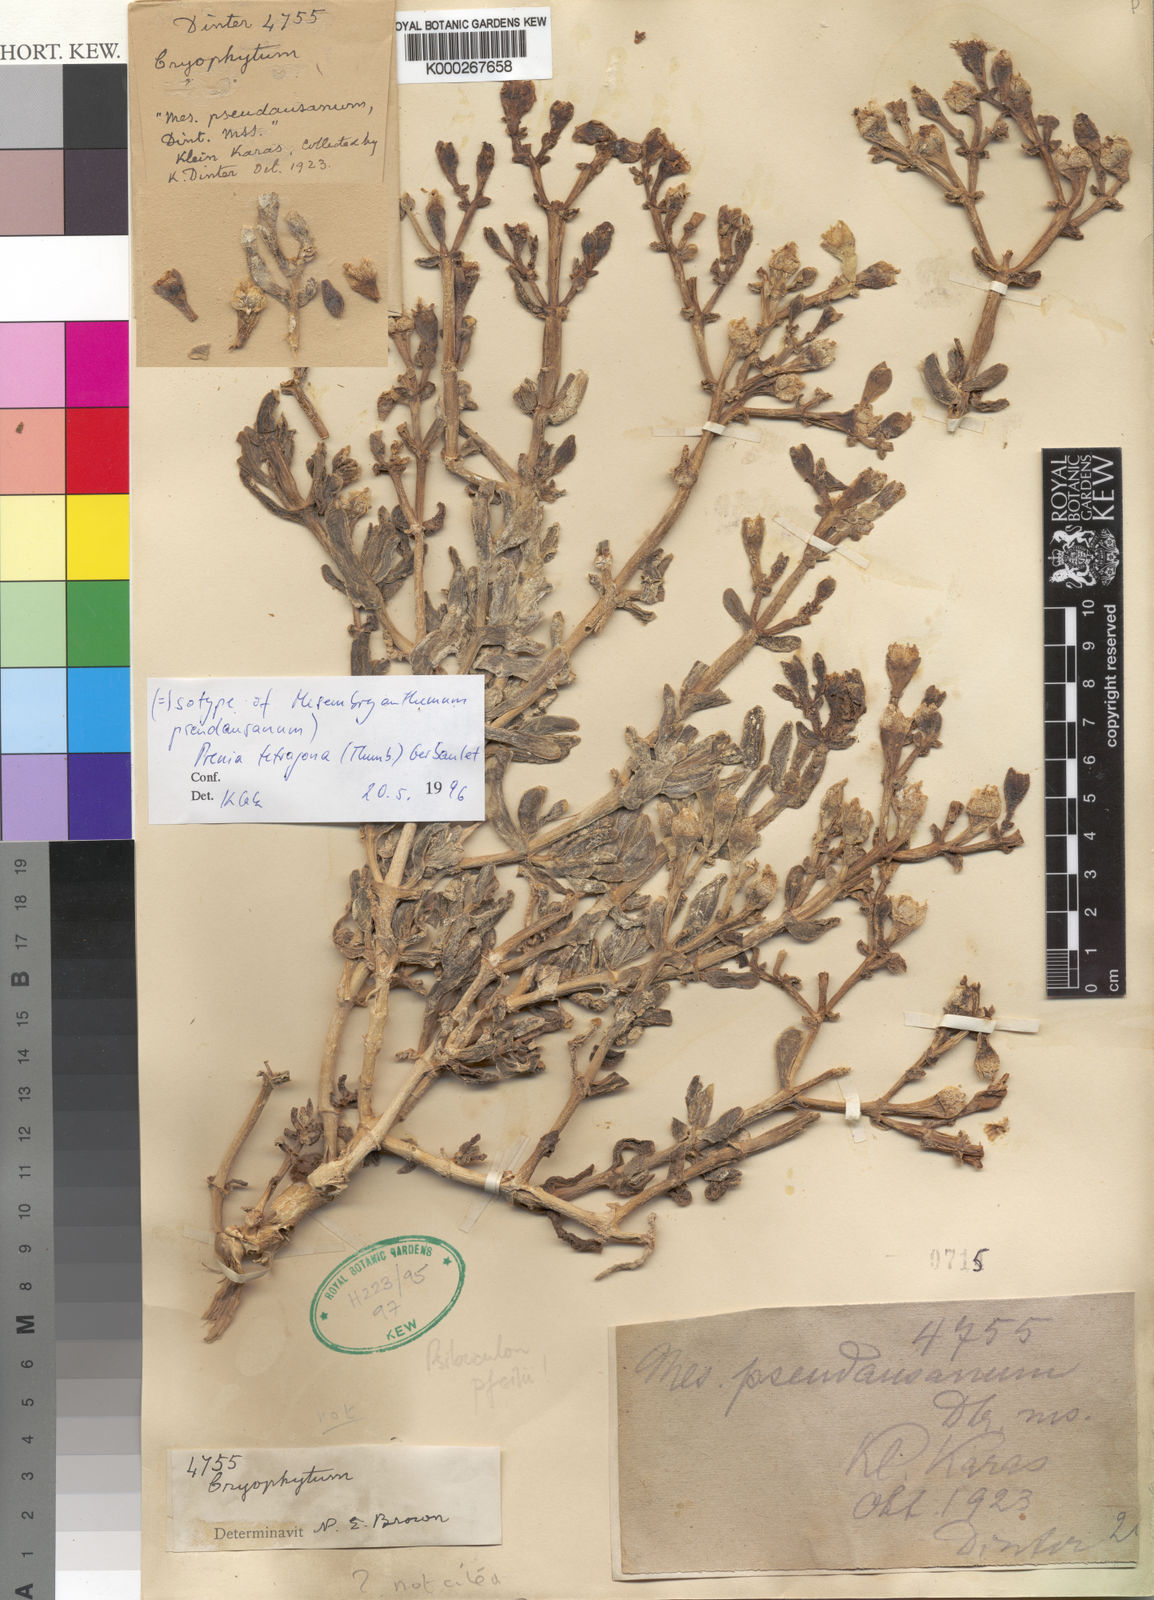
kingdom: Plantae
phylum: Tracheophyta
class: Magnoliopsida
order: Caryophyllales
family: Aizoaceae
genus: Mesembryanthemum
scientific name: Mesembryanthemum
